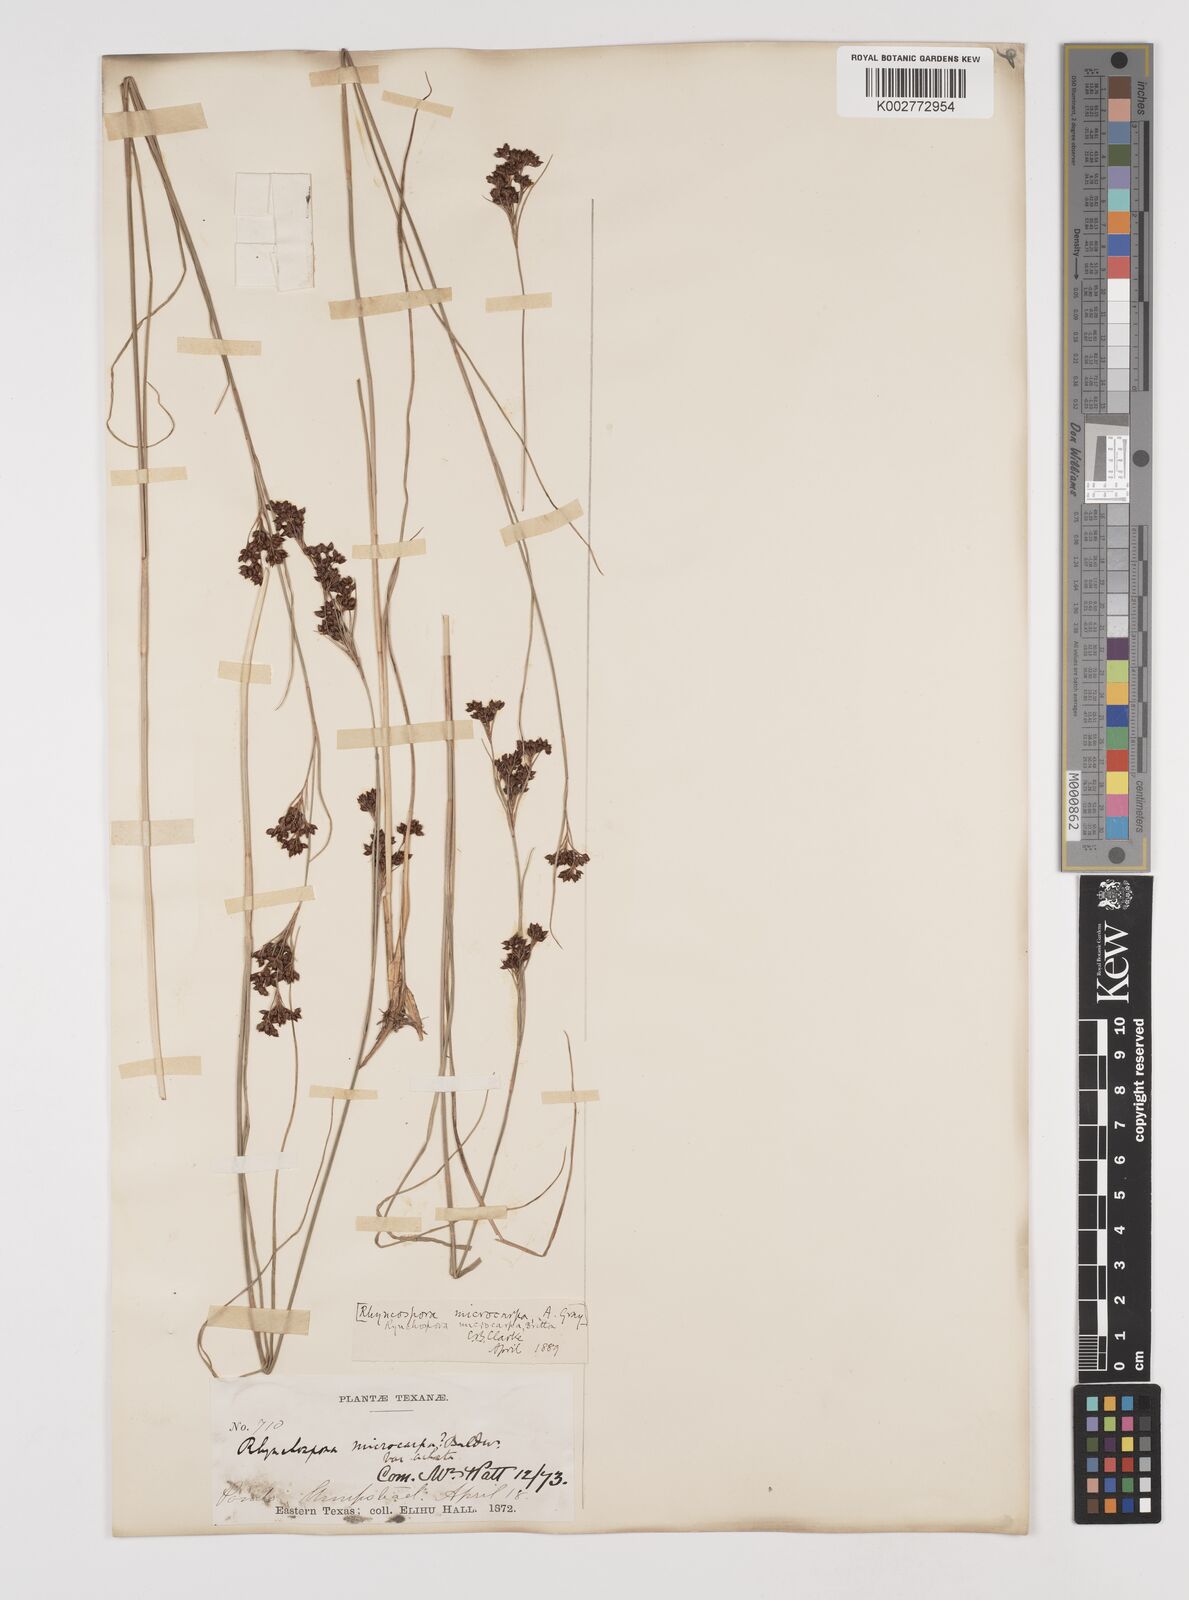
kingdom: Plantae
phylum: Tracheophyta
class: Liliopsida
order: Poales
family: Cyperaceae
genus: Rhynchospora
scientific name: Rhynchospora microcarpa
